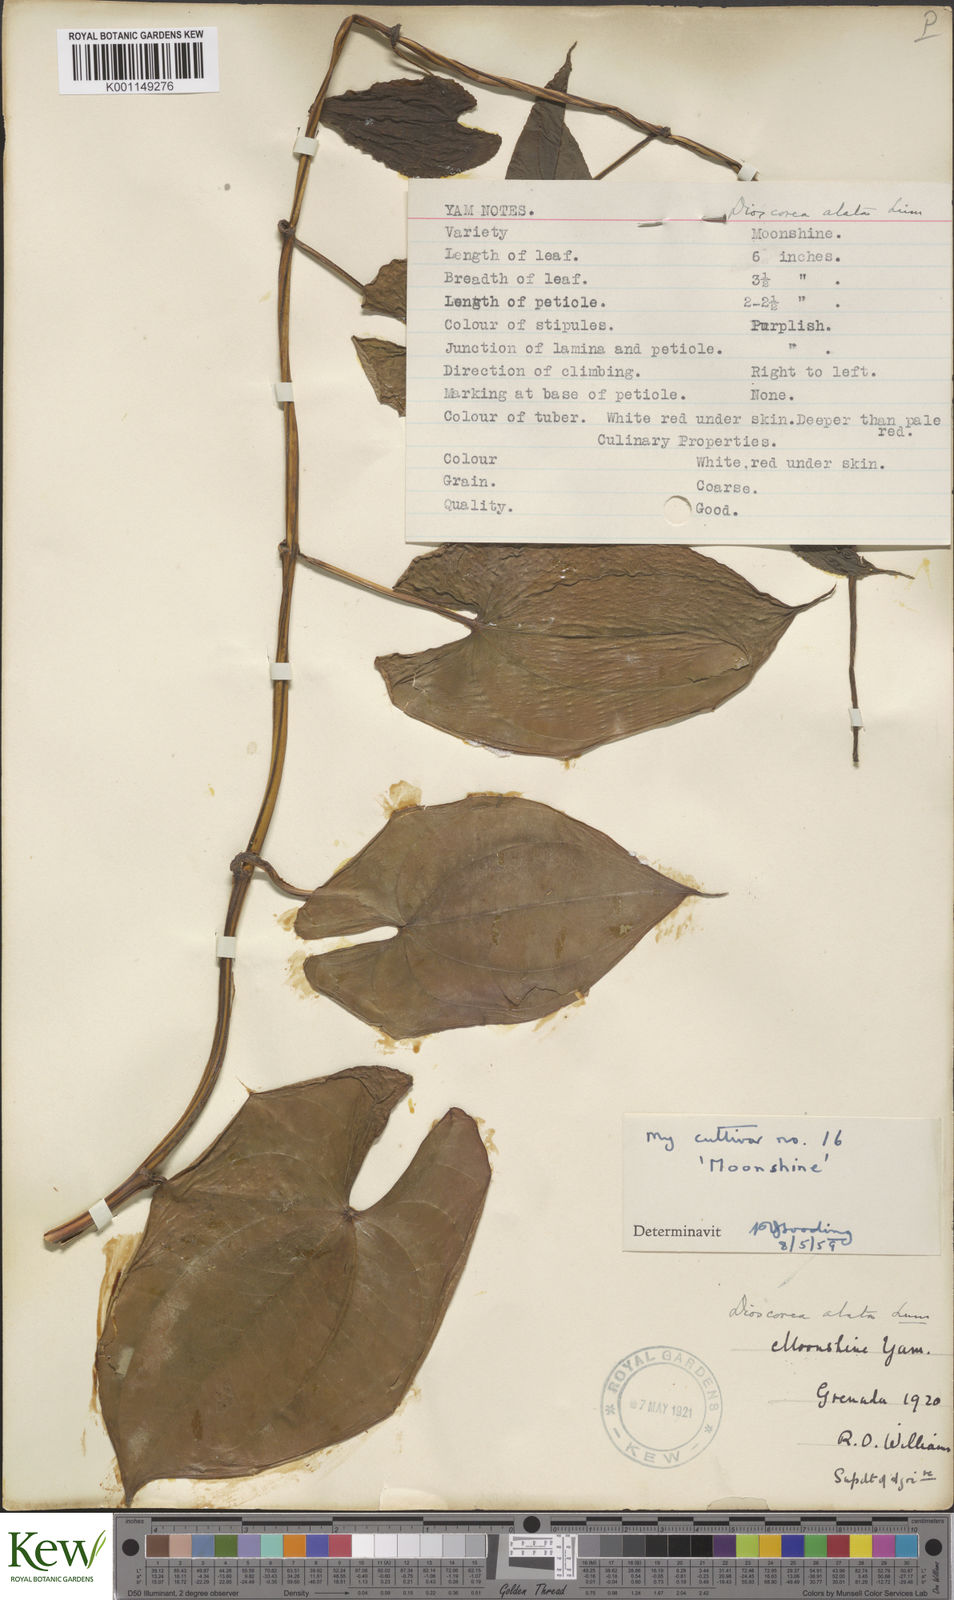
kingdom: Plantae
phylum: Tracheophyta
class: Liliopsida
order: Dioscoreales
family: Dioscoreaceae
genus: Dioscorea
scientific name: Dioscorea alata
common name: Water yam
